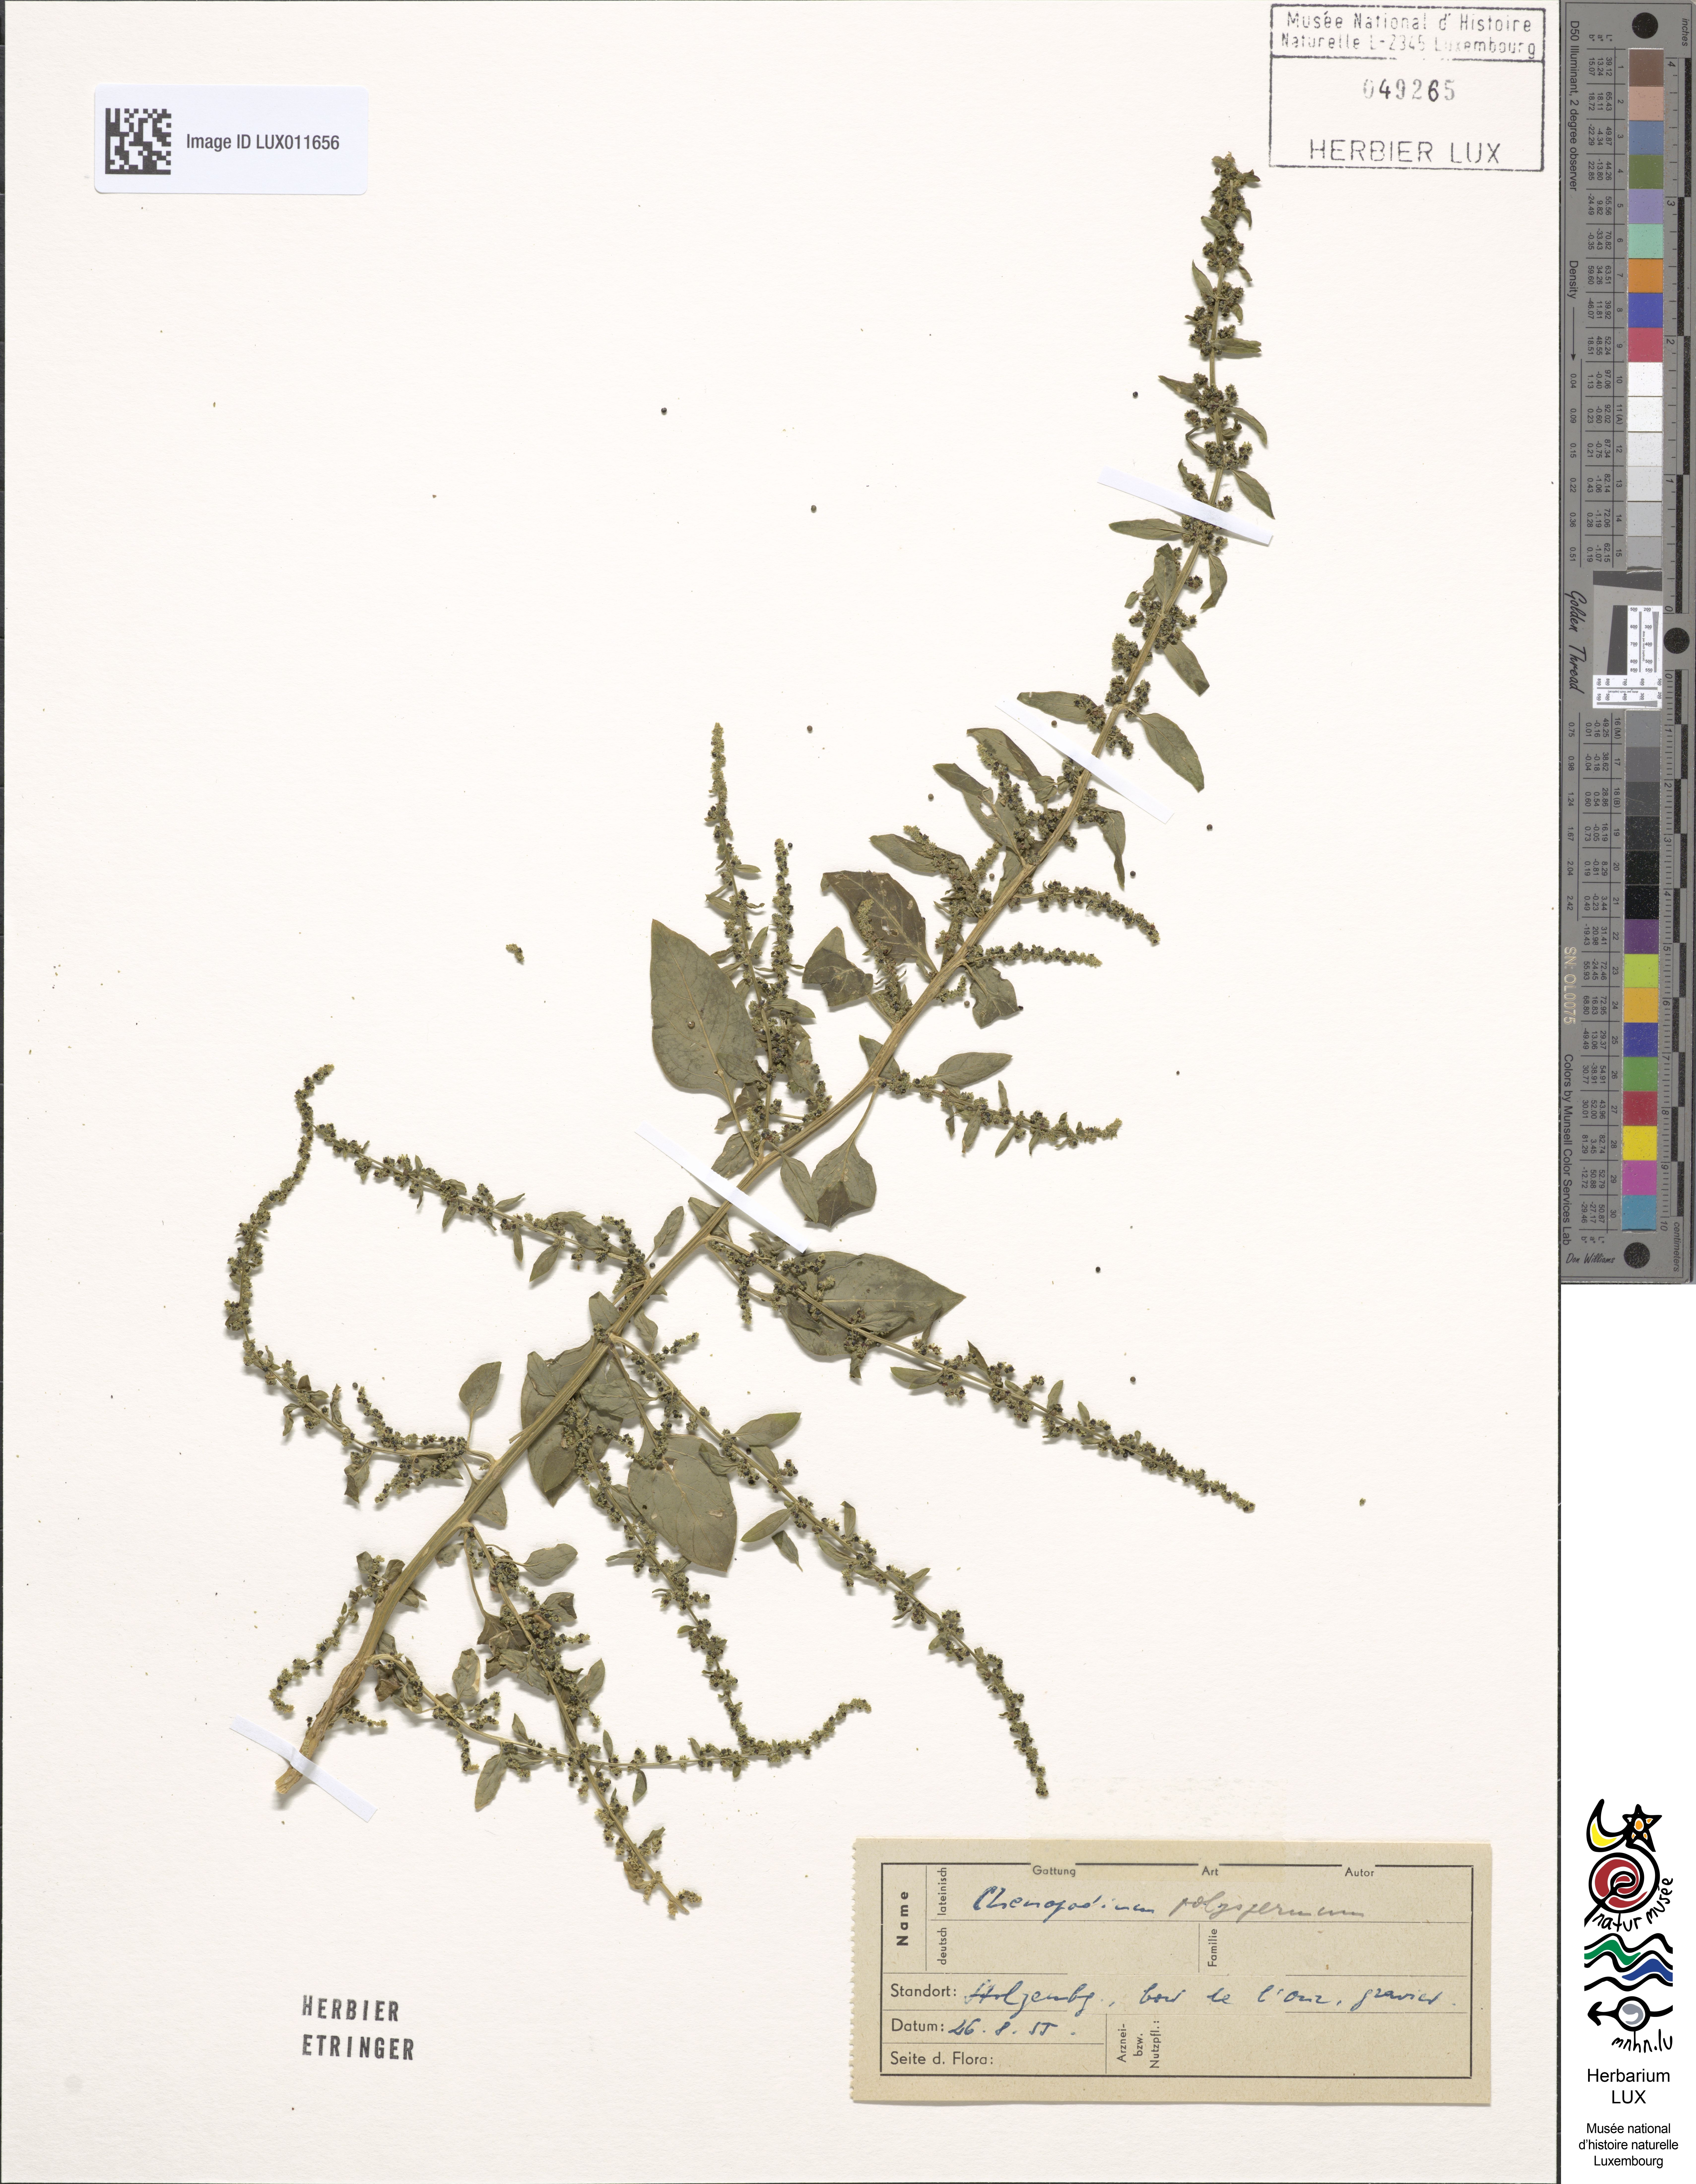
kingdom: Plantae
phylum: Tracheophyta
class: Magnoliopsida
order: Caryophyllales
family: Amaranthaceae
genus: Lipandra
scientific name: Lipandra polysperma
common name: Many-seed goosefoot
